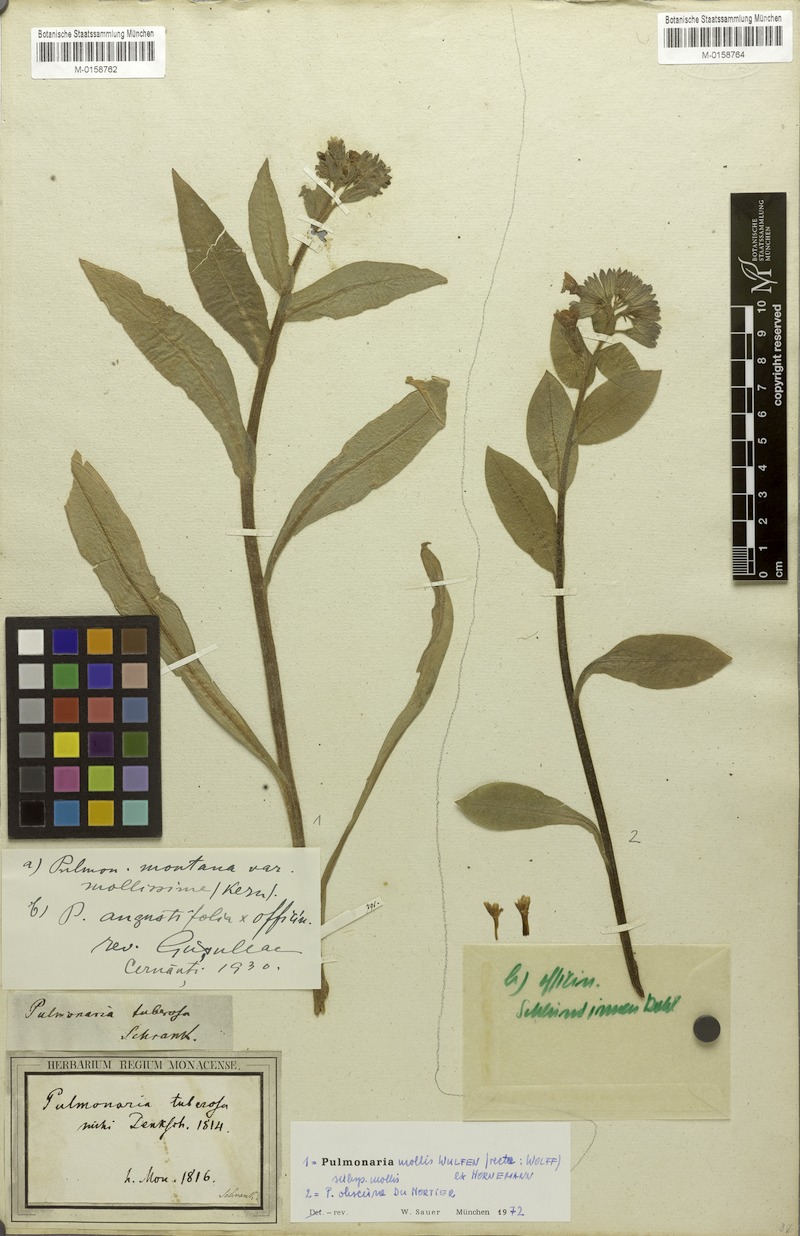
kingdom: Plantae
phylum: Tracheophyta
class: Magnoliopsida
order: Boraginales
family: Boraginaceae
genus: Pulmonaria
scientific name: Pulmonaria obscura
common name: Suffolk lungwort
